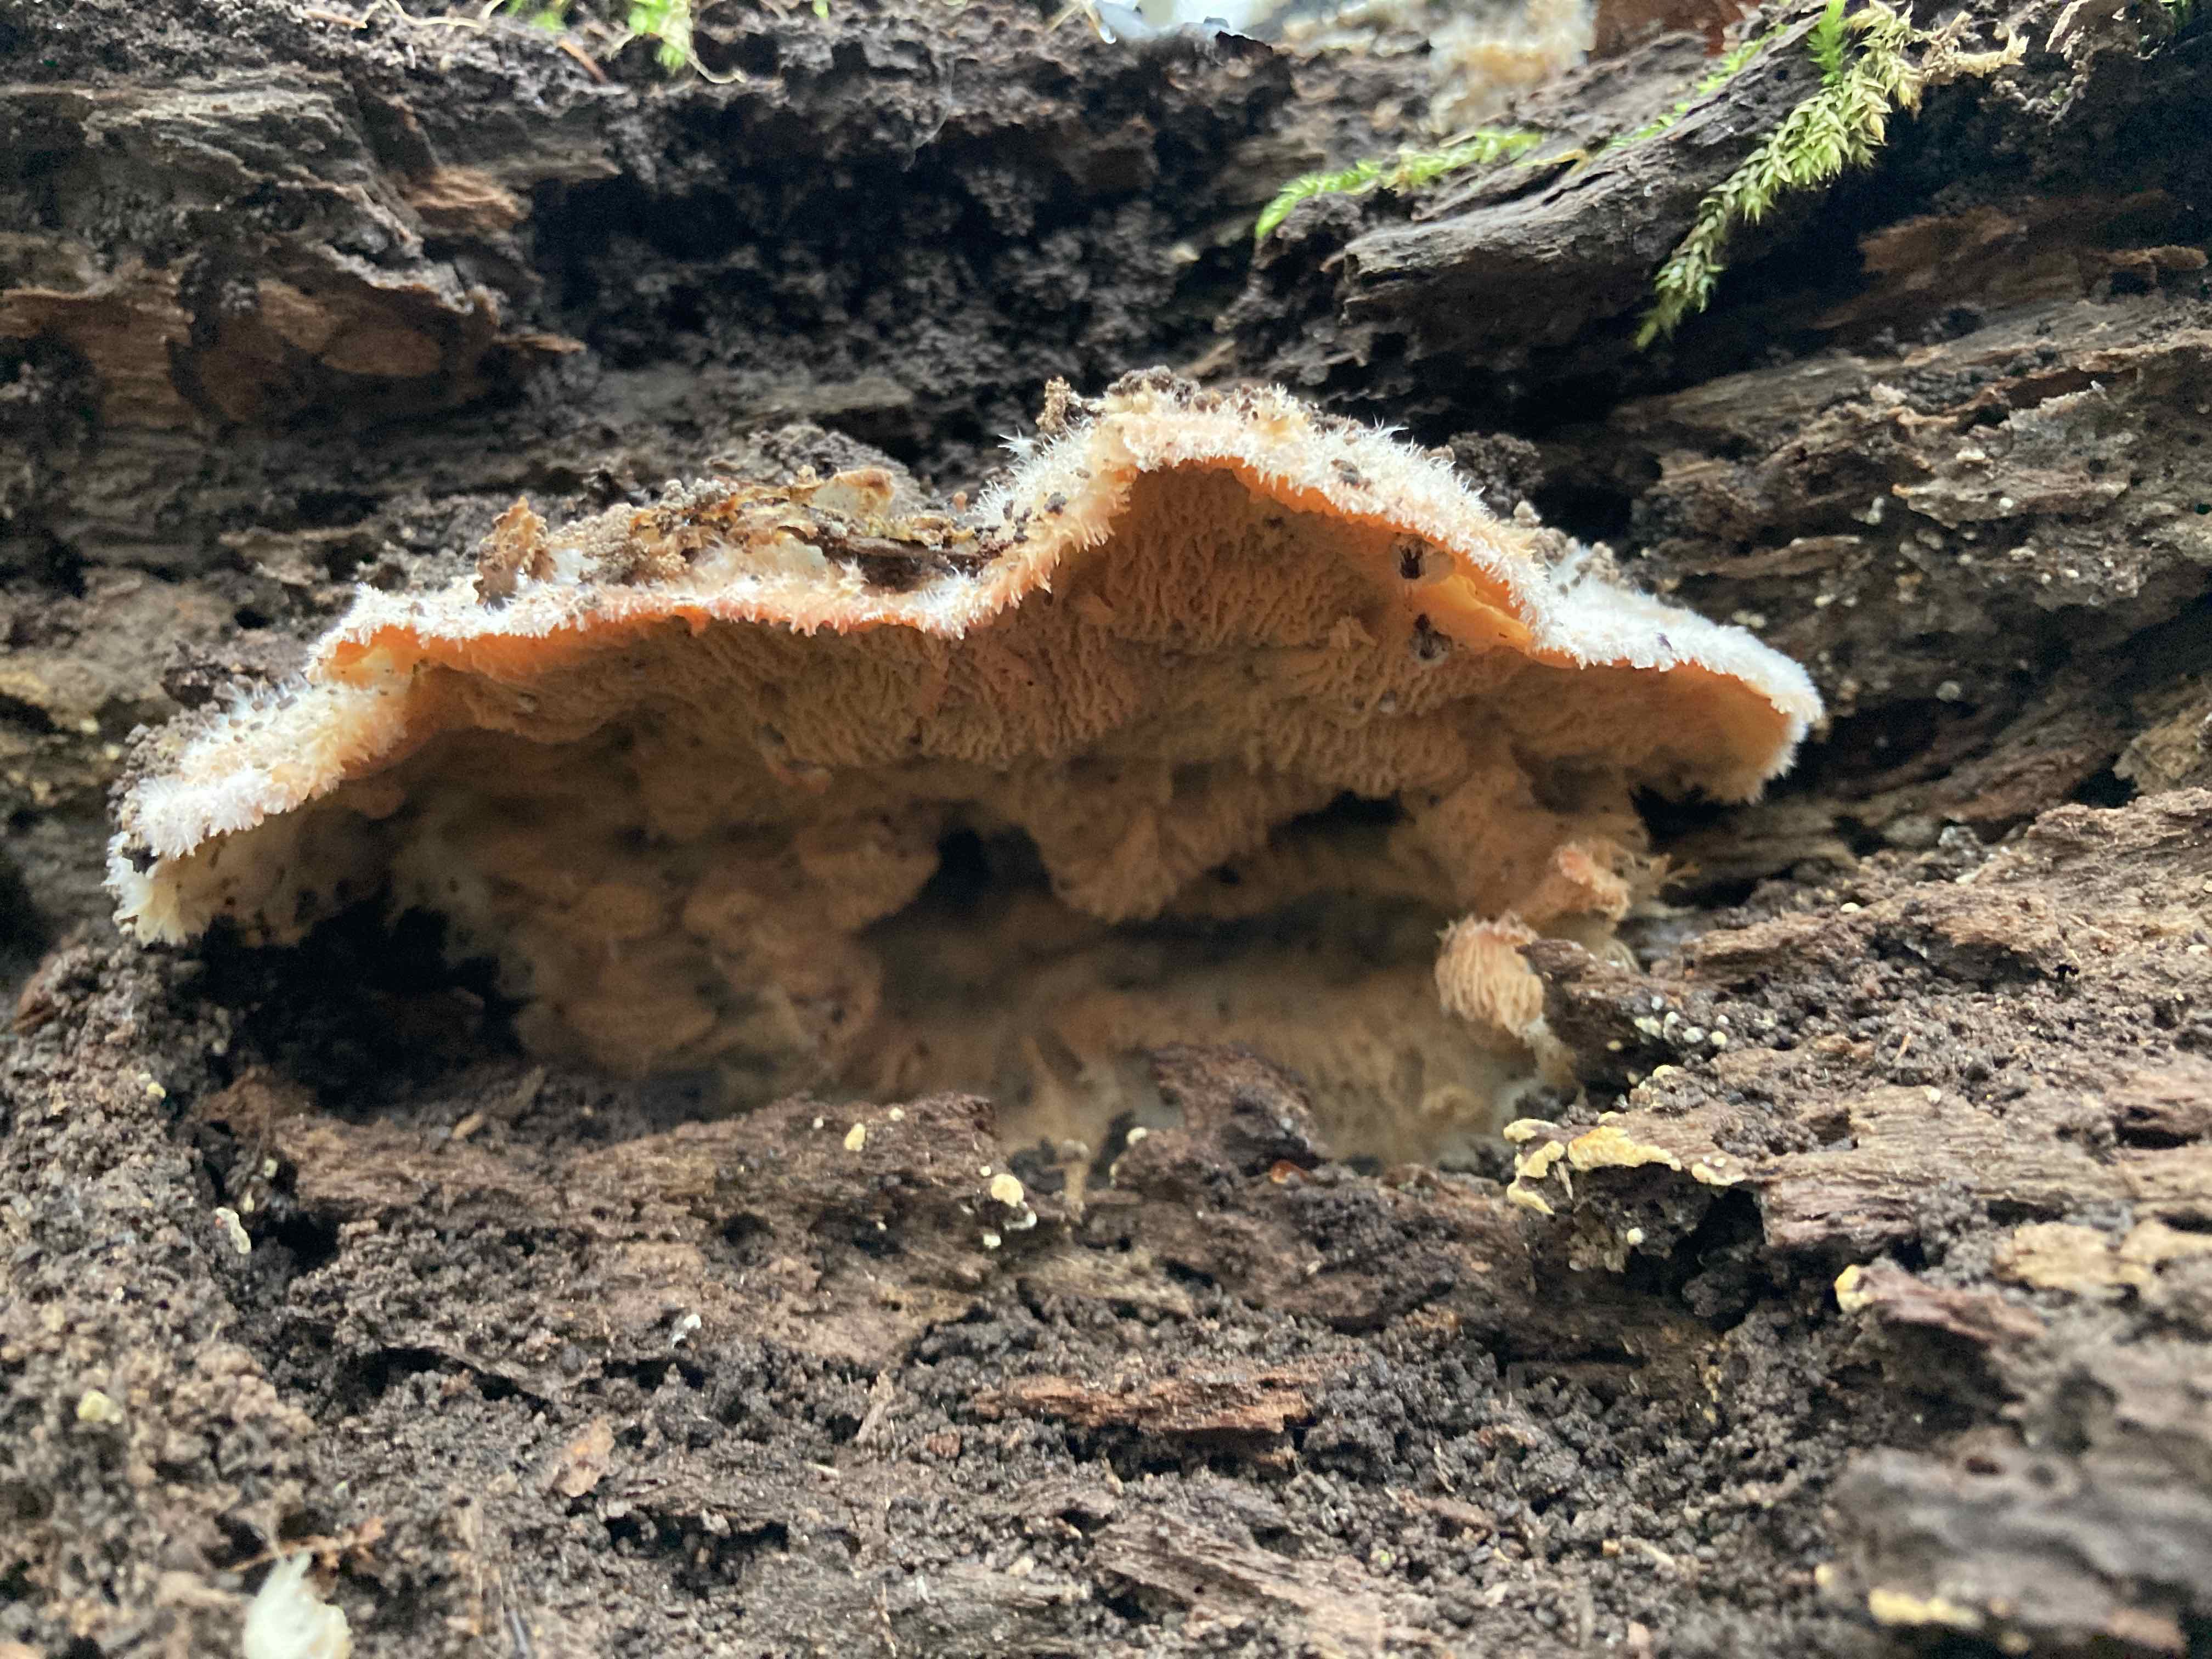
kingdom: Fungi
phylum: Basidiomycota
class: Agaricomycetes
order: Polyporales
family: Meruliaceae
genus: Phlebia
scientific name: Phlebia tremellosa
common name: bævrende åresvamp
